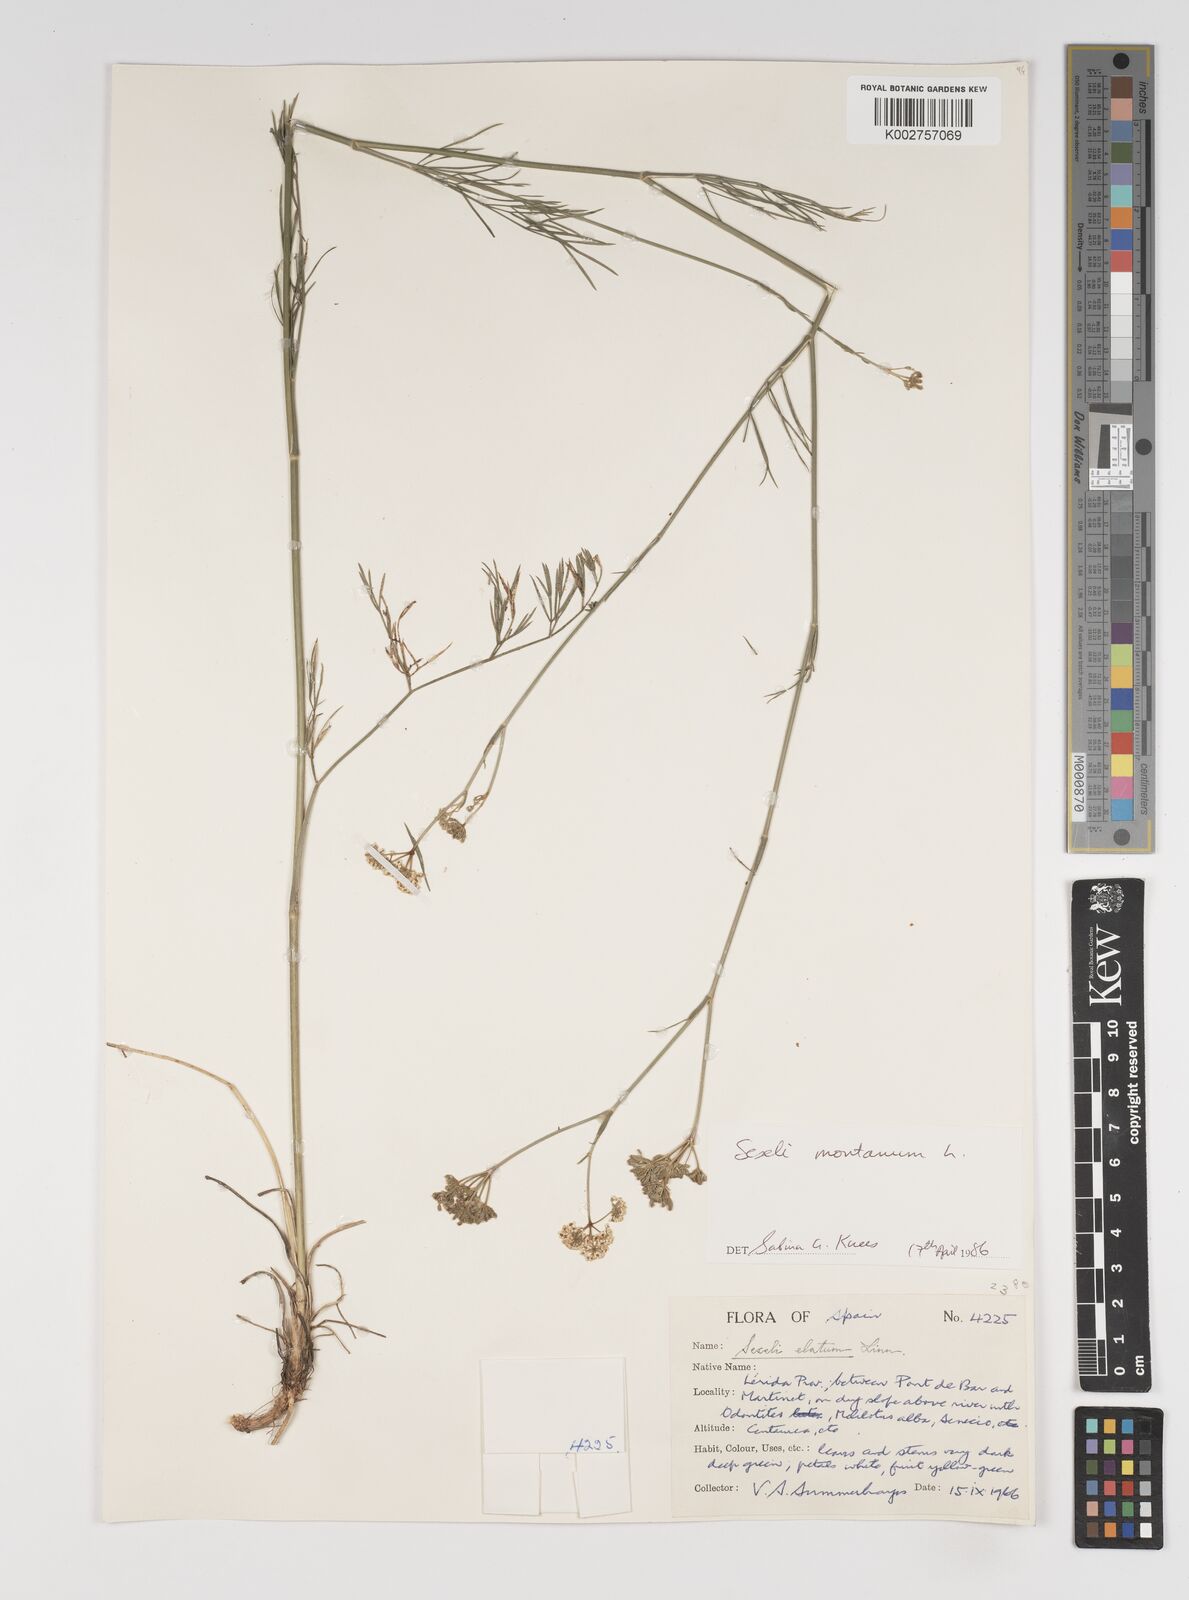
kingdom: Plantae
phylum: Tracheophyta
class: Magnoliopsida
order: Apiales
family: Apiaceae
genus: Seseli
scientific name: Seseli montanum
